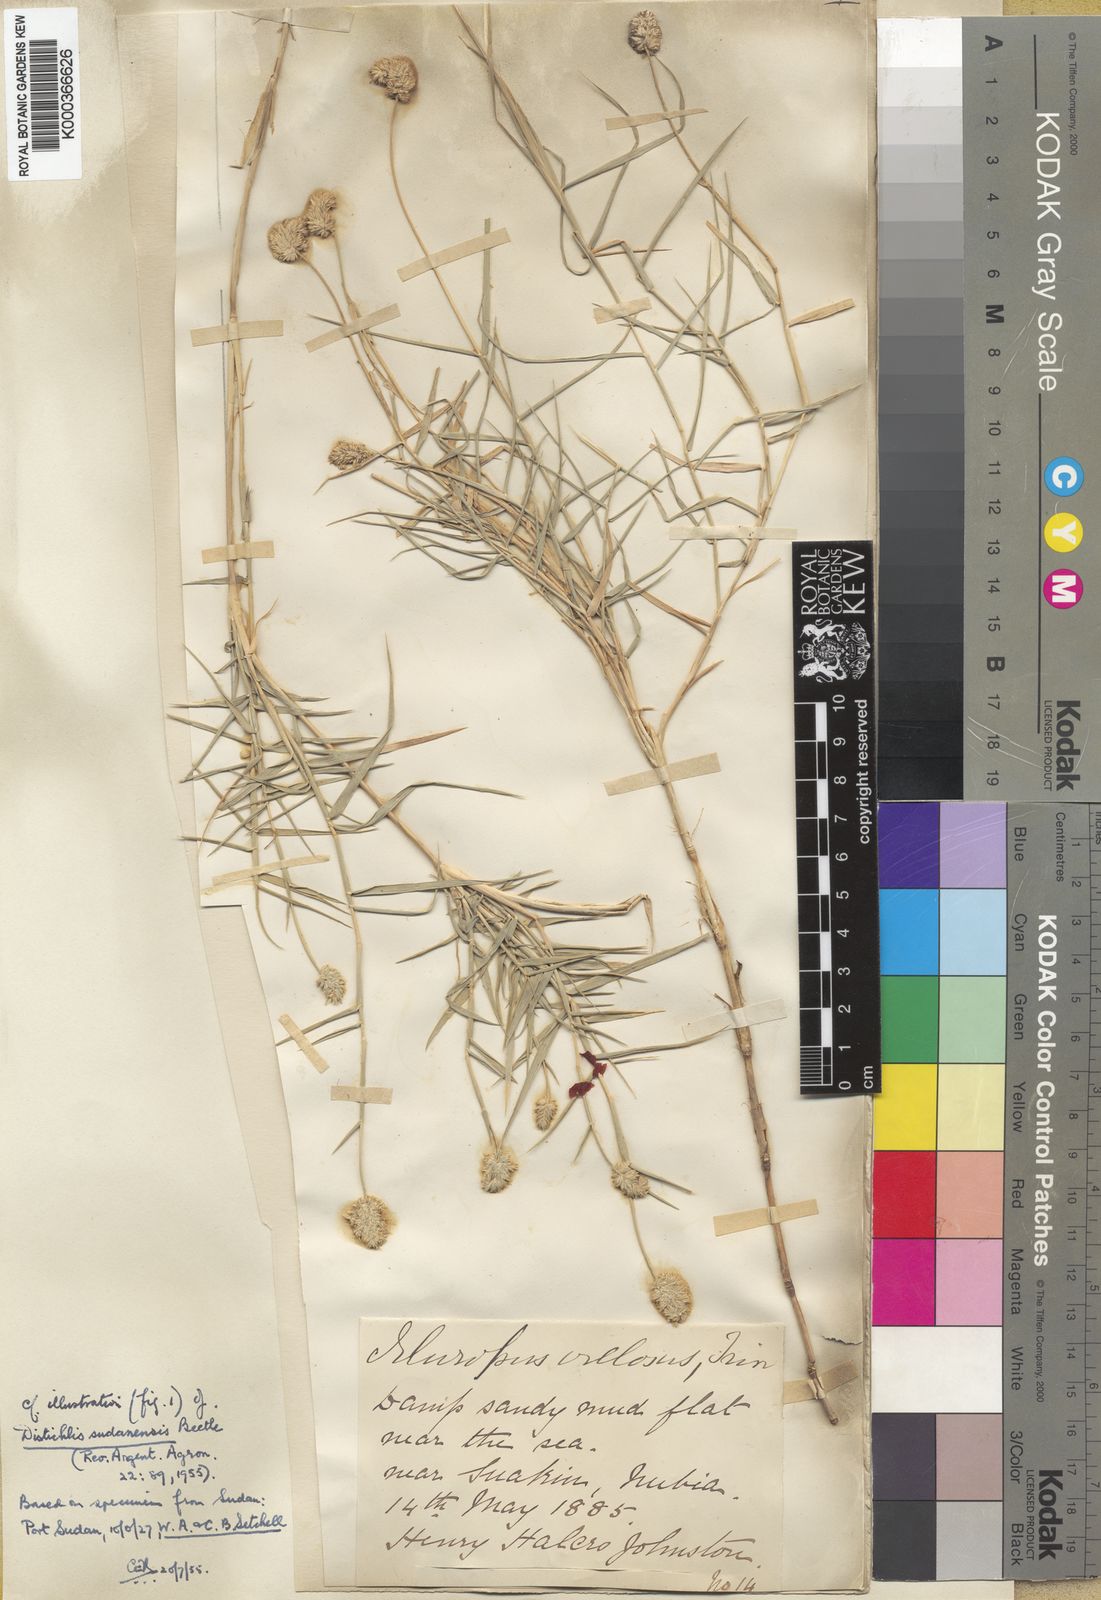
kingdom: Plantae
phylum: Tracheophyta
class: Liliopsida
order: Poales
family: Poaceae
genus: Aeluropus
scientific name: Aeluropus
